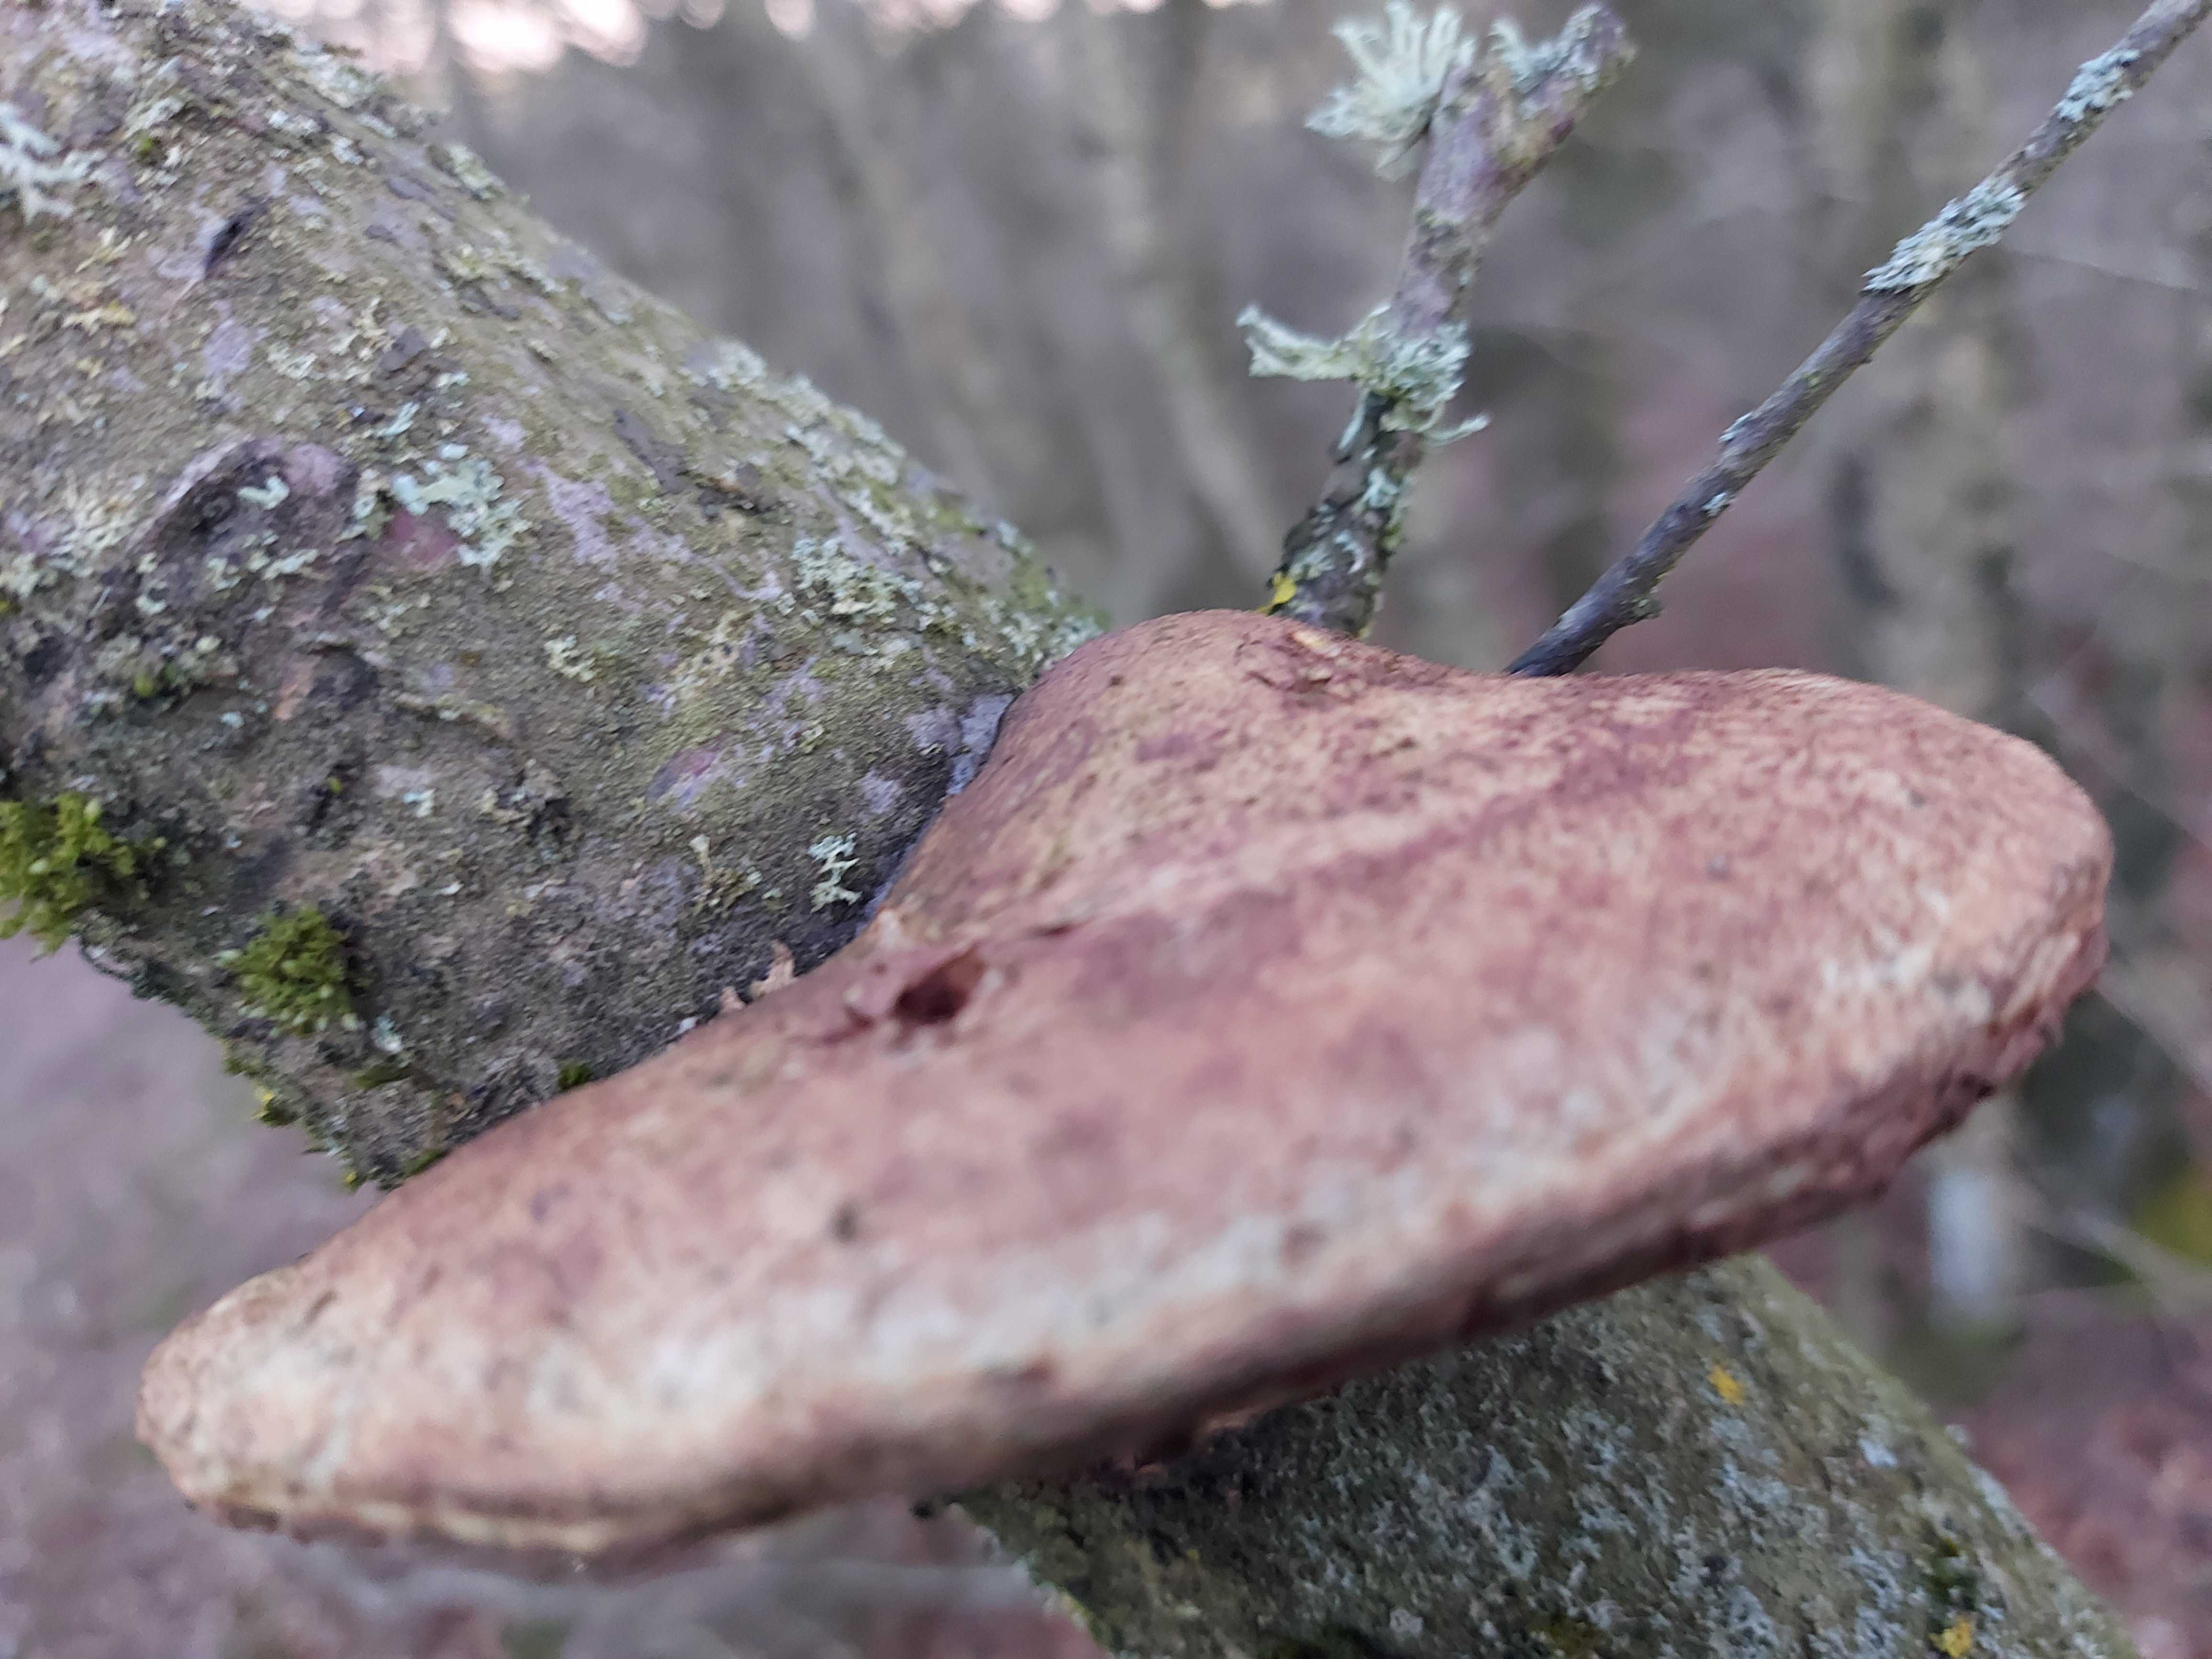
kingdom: Fungi
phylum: Basidiomycota
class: Agaricomycetes
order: Polyporales
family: Phanerochaetaceae
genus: Hapalopilus
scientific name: Hapalopilus rutilans
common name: rødlig okkerporesvamp
